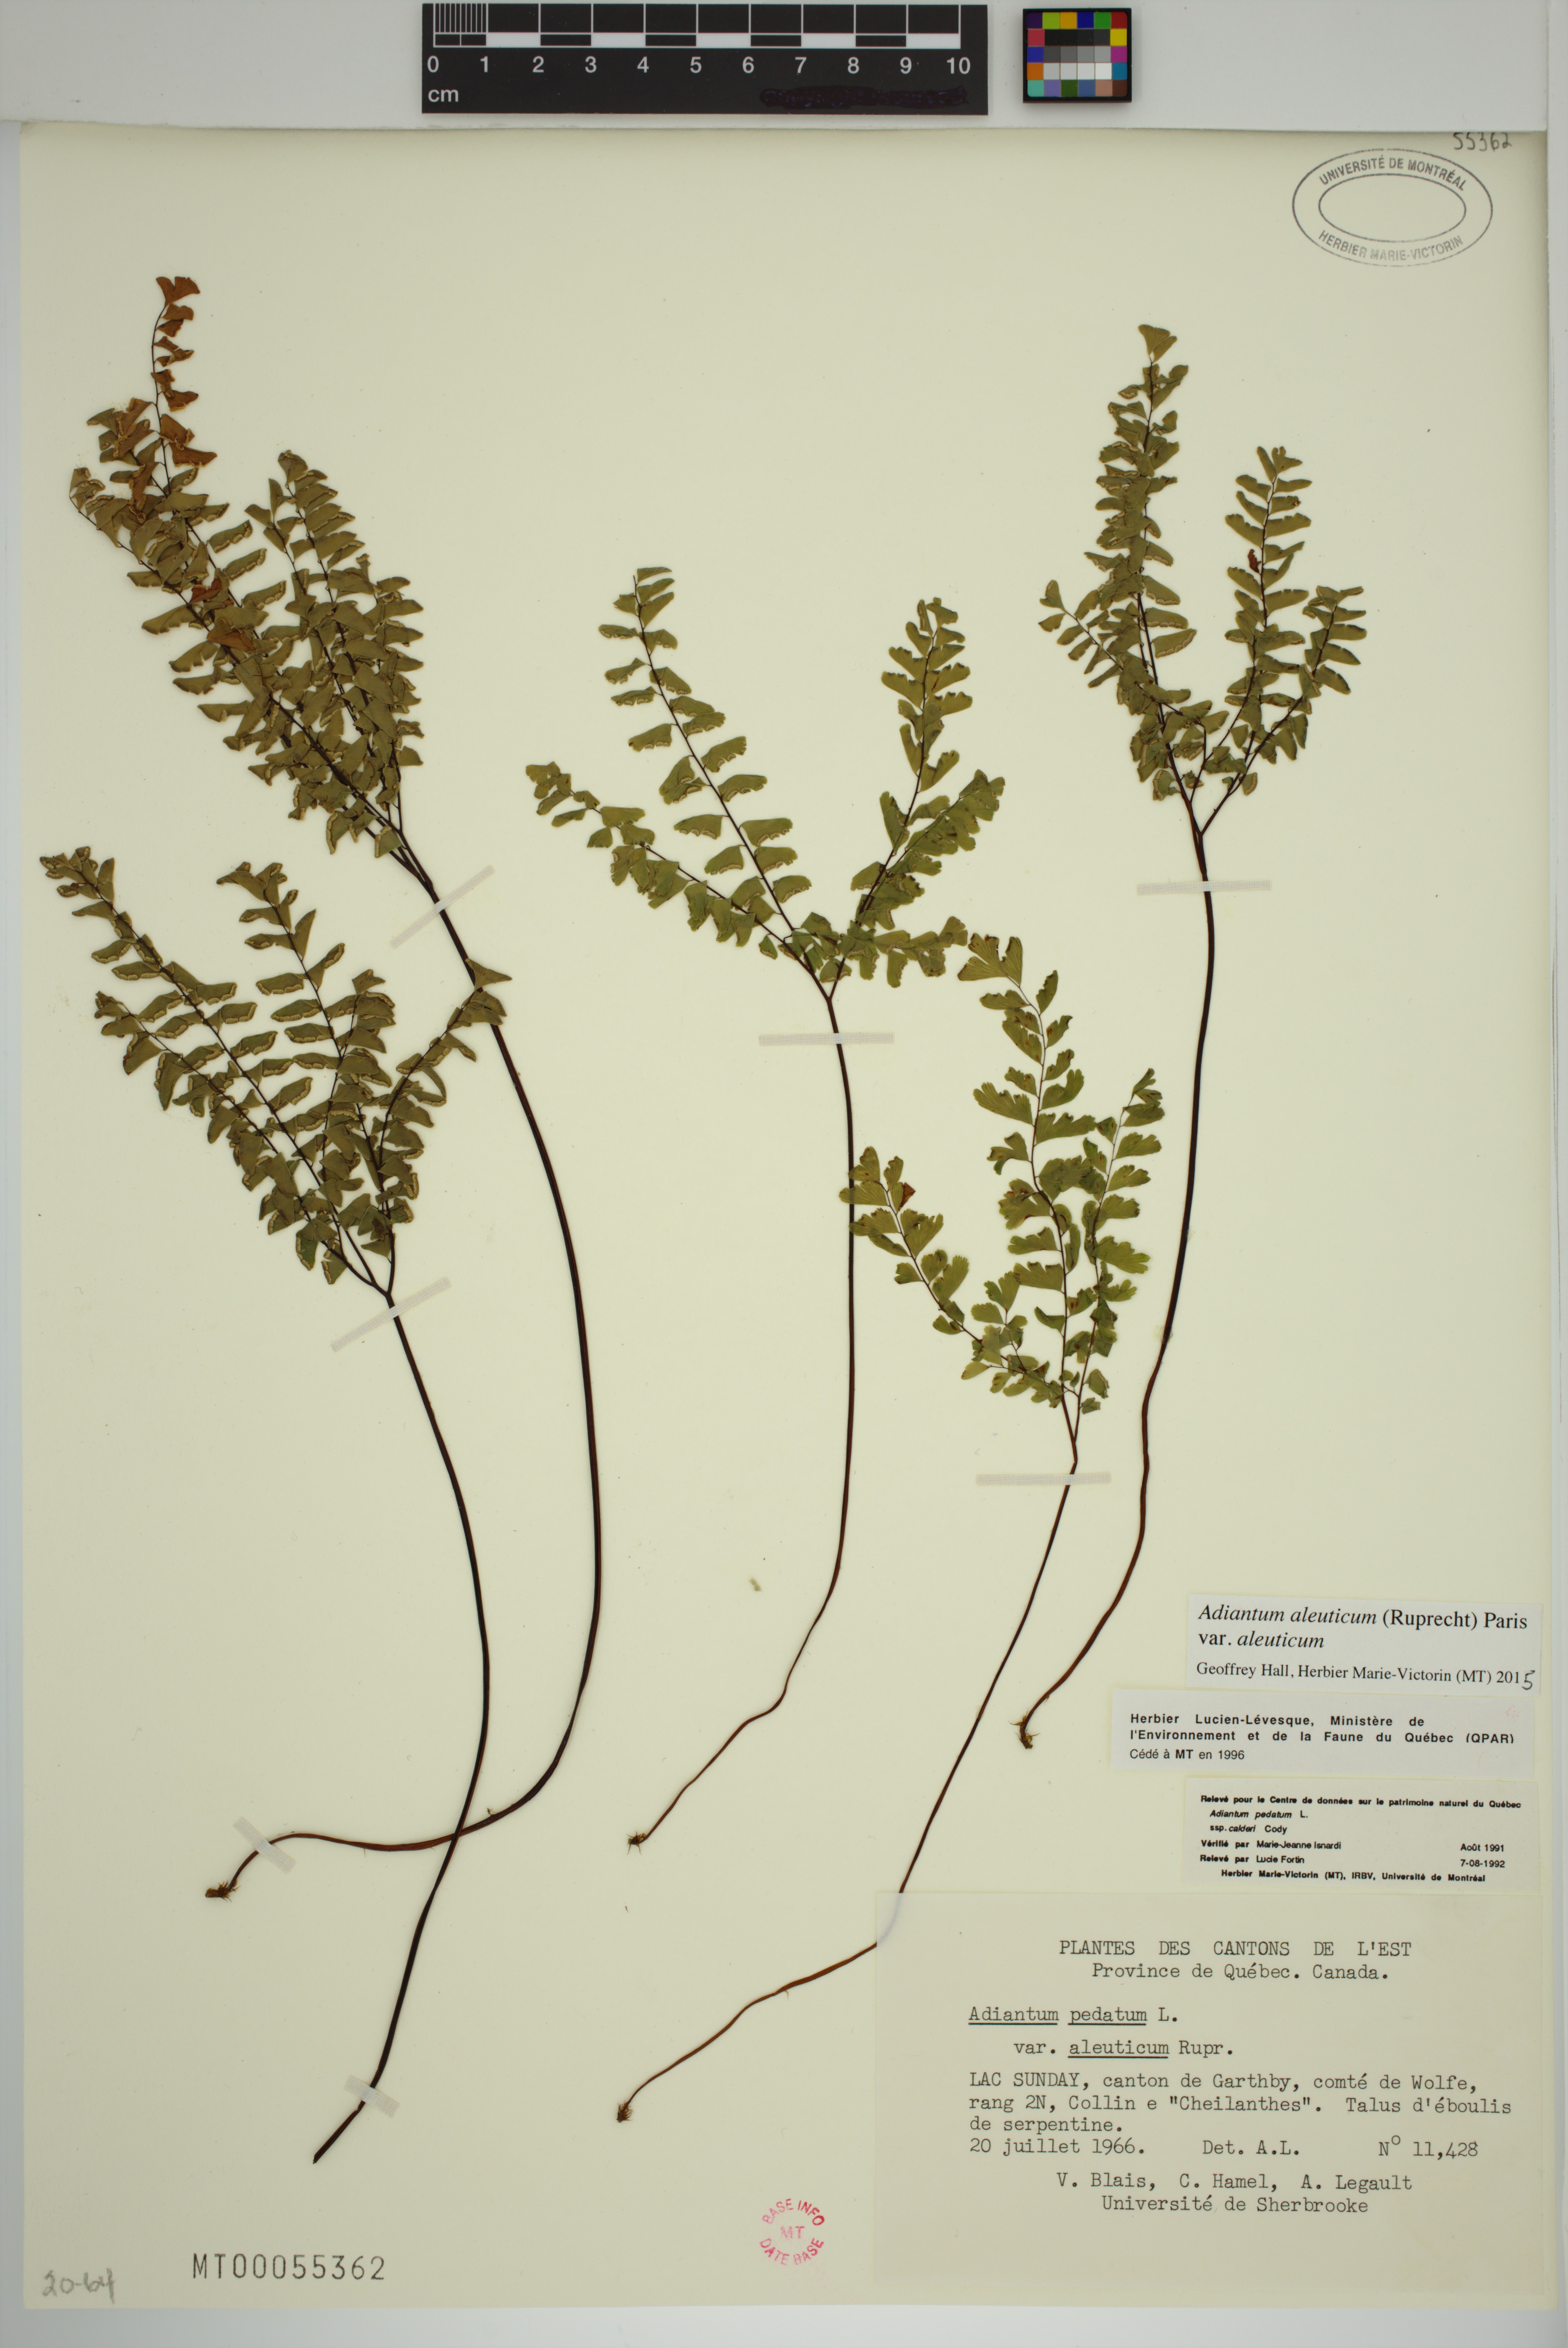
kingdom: Plantae
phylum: Tracheophyta
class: Polypodiopsida
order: Polypodiales
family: Pteridaceae
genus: Adiantum
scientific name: Adiantum aleuticum
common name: Aleutian maidenhair fern
